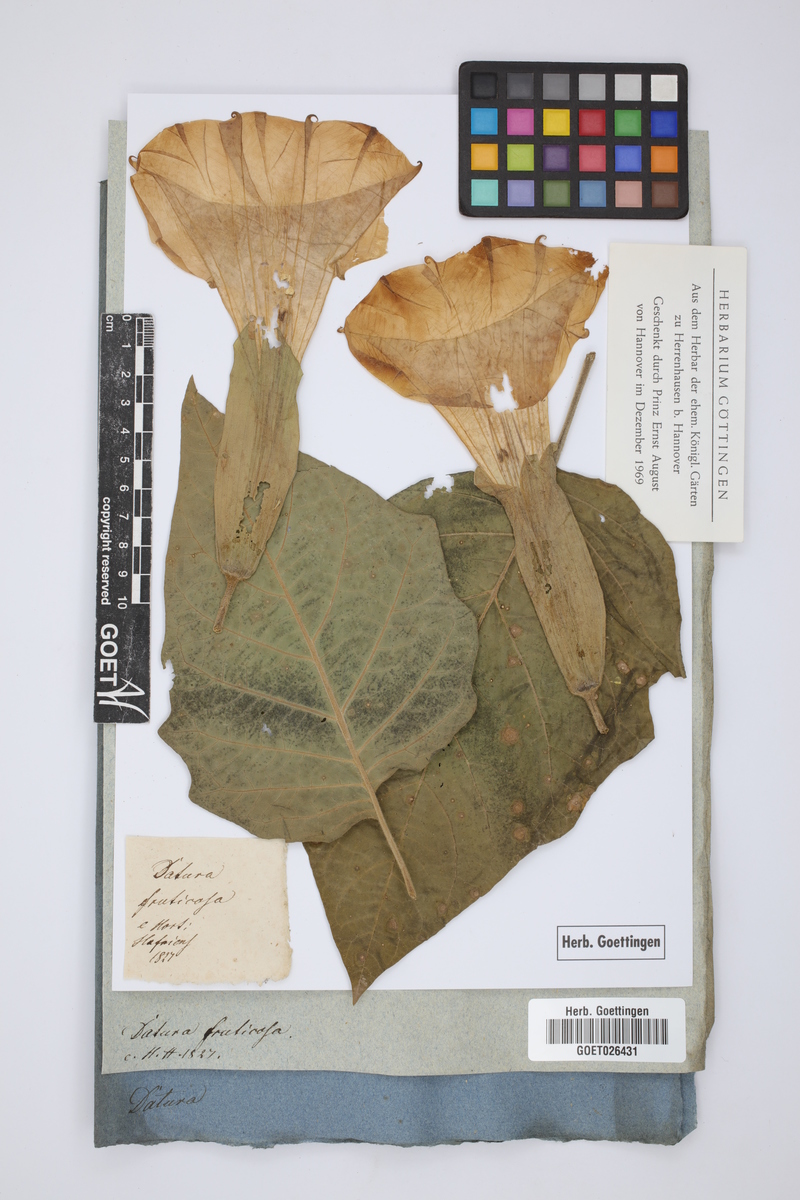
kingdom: Plantae
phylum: Tracheophyta
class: Magnoliopsida
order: Solanales
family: Solanaceae
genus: Datura
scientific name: Datura metel
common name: Jimsonweed
